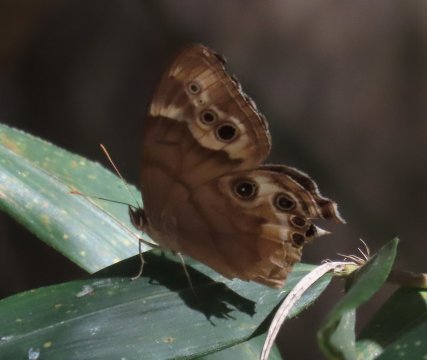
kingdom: Animalia
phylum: Arthropoda
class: Insecta
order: Lepidoptera
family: Nymphalidae
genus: Enodia
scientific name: Enodia portlandia
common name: Southern Pearly Eye
